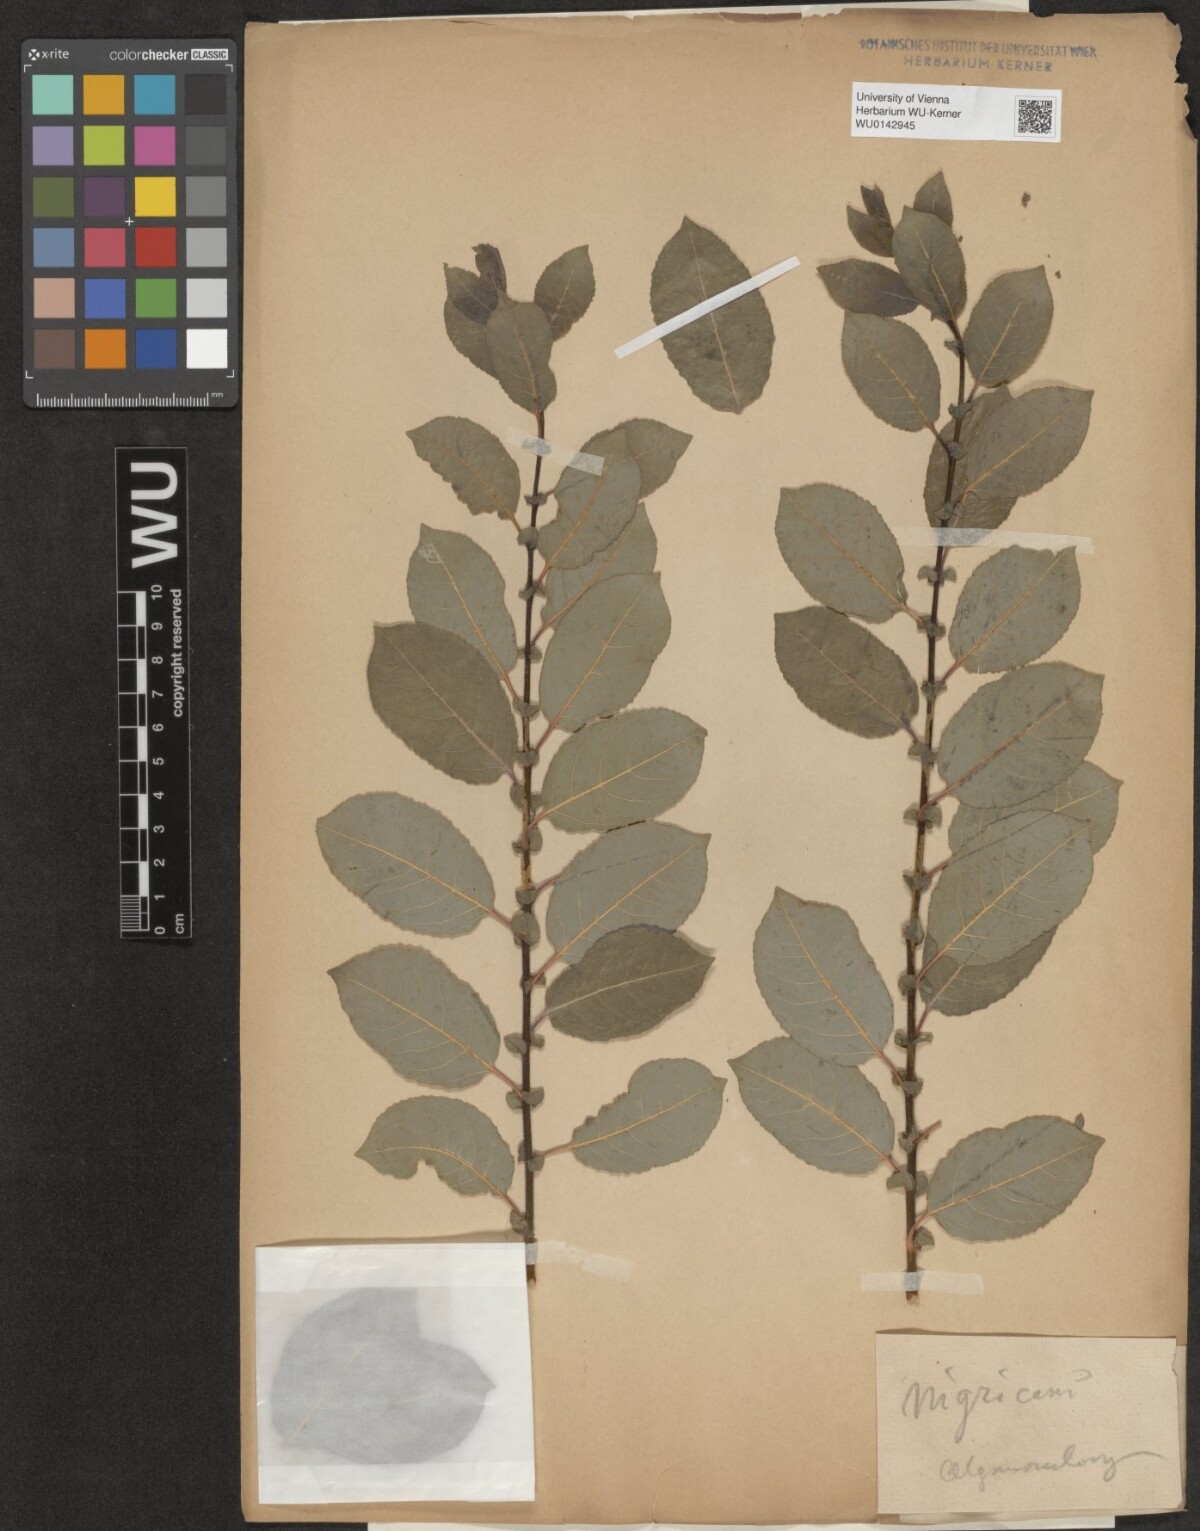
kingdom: Plantae
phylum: Tracheophyta
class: Magnoliopsida
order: Malpighiales
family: Salicaceae
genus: Salix
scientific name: Salix myrsinifolia
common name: Dark-leaved willow
